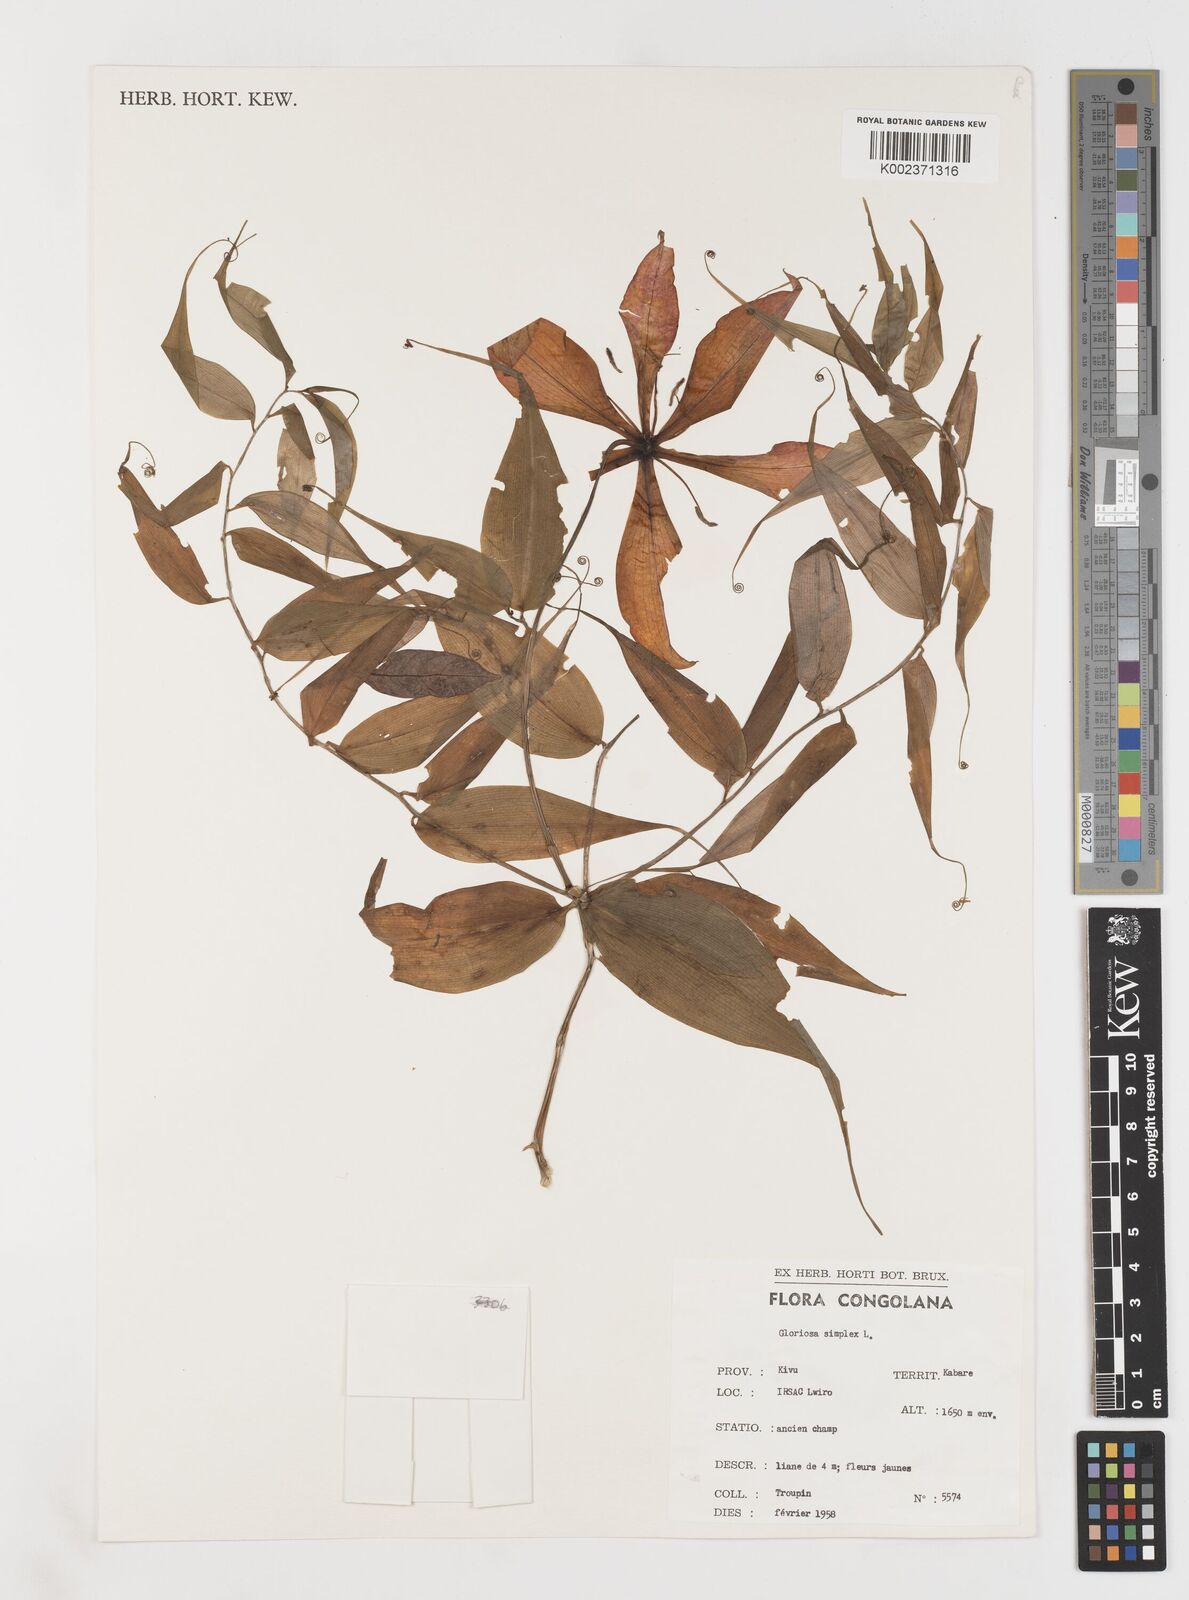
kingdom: Plantae
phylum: Tracheophyta
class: Liliopsida
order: Liliales
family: Colchicaceae
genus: Gloriosa
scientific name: Gloriosa simplex
